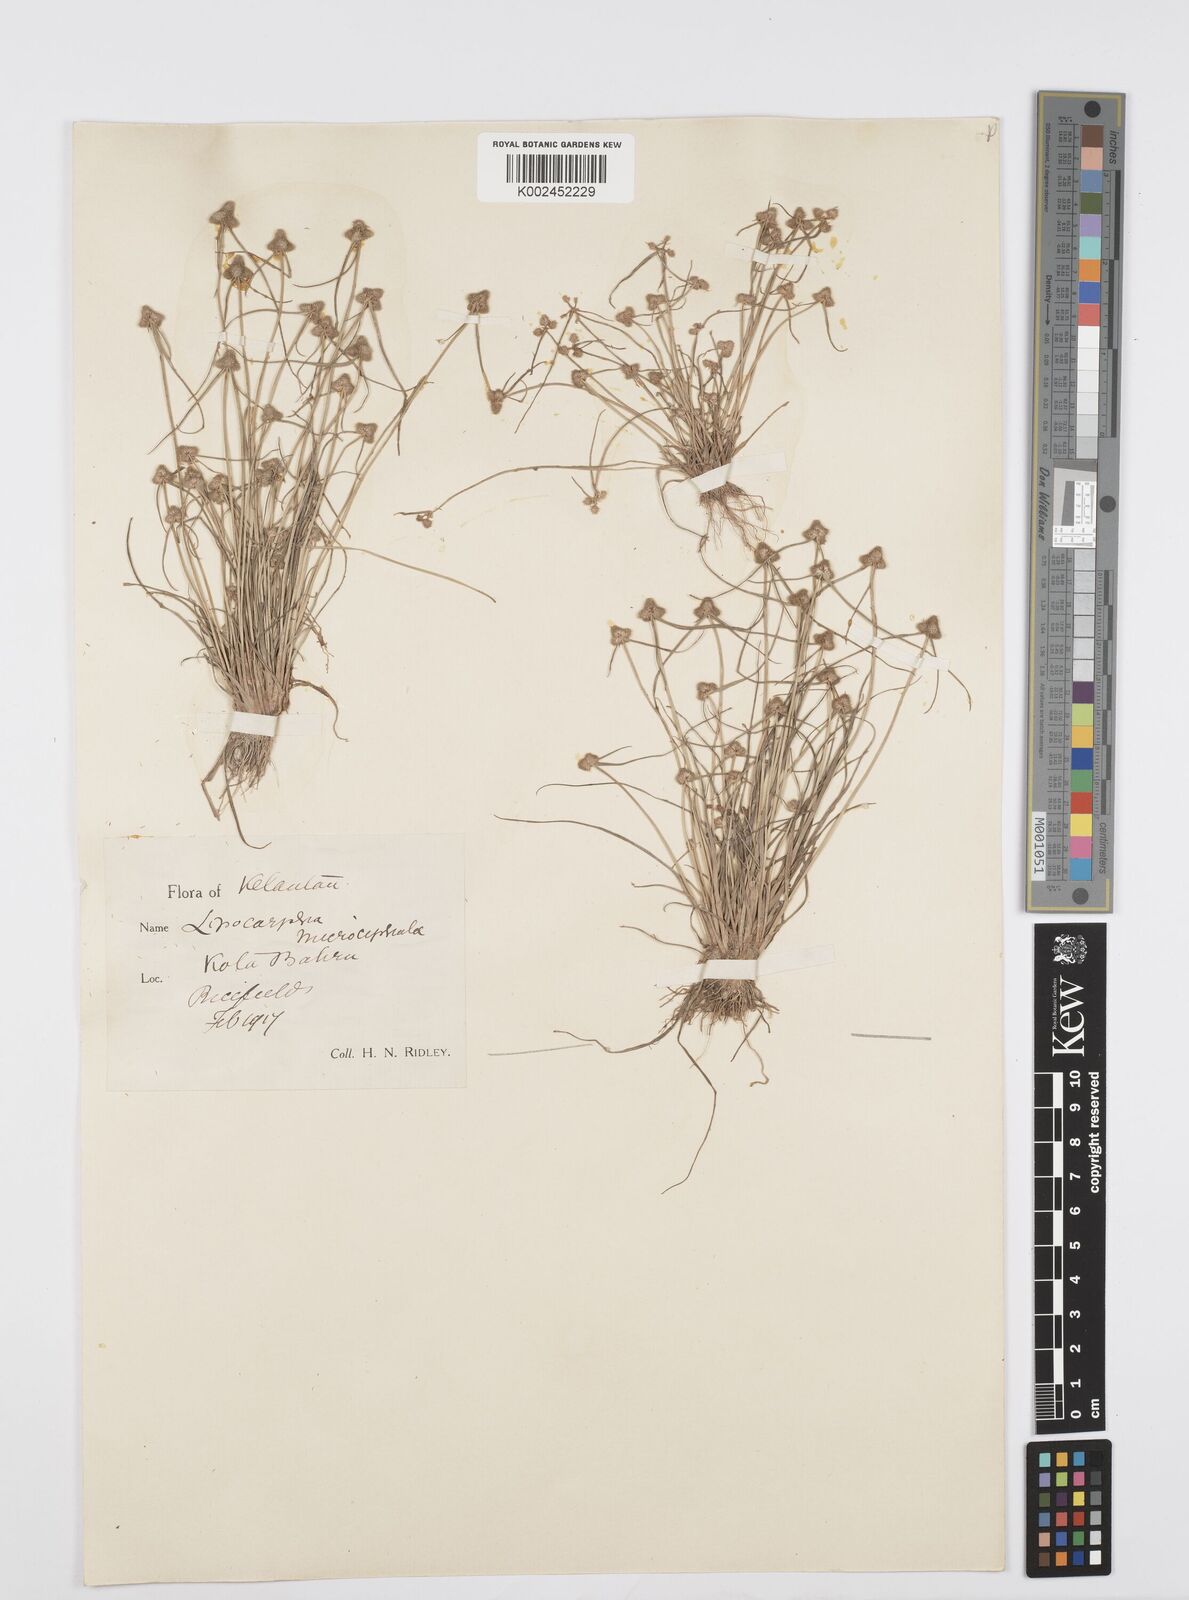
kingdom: Plantae
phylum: Tracheophyta
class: Liliopsida
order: Poales
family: Cyperaceae
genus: Cyperus
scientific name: Cyperus microcephalus
